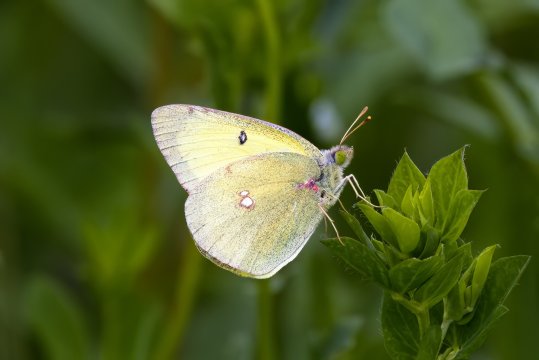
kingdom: Animalia
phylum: Arthropoda
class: Insecta
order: Lepidoptera
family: Pieridae
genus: Colias
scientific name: Colias philodice
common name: Clouded Sulphur
